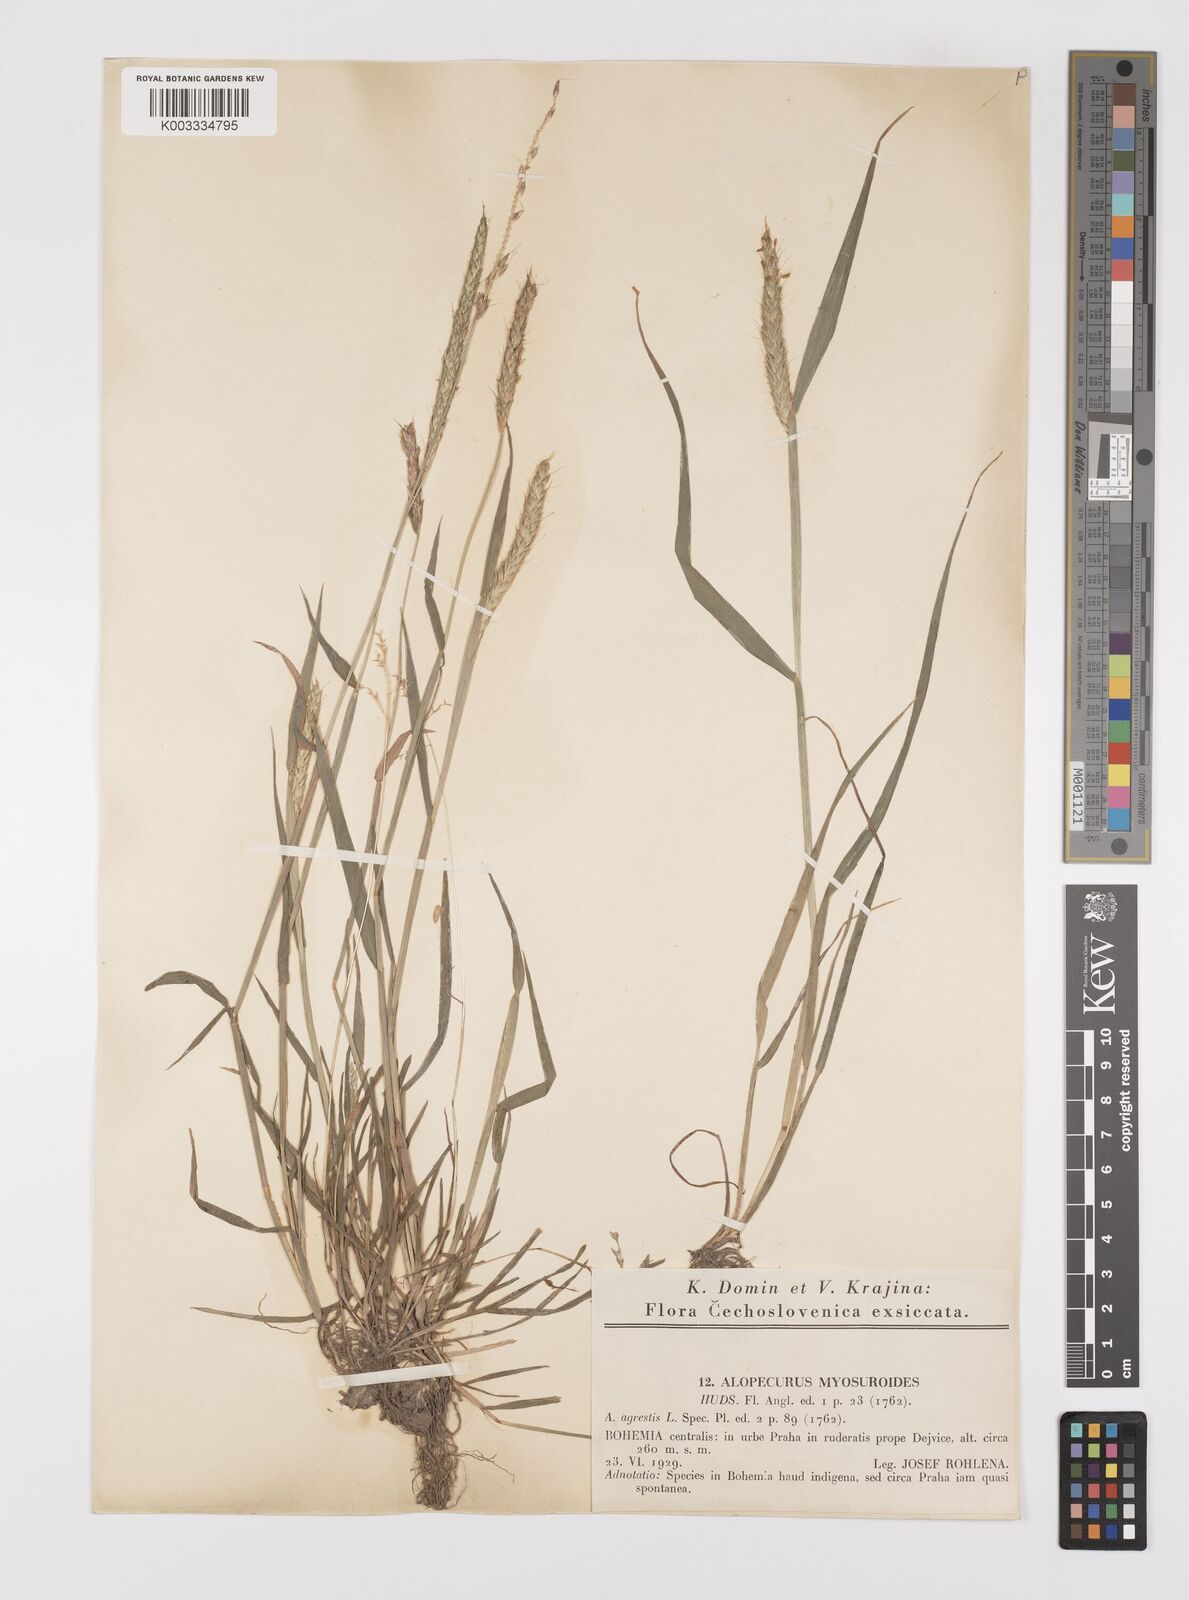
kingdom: Plantae
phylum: Tracheophyta
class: Liliopsida
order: Poales
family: Poaceae
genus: Alopecurus
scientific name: Alopecurus myosuroides
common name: Black-grass
